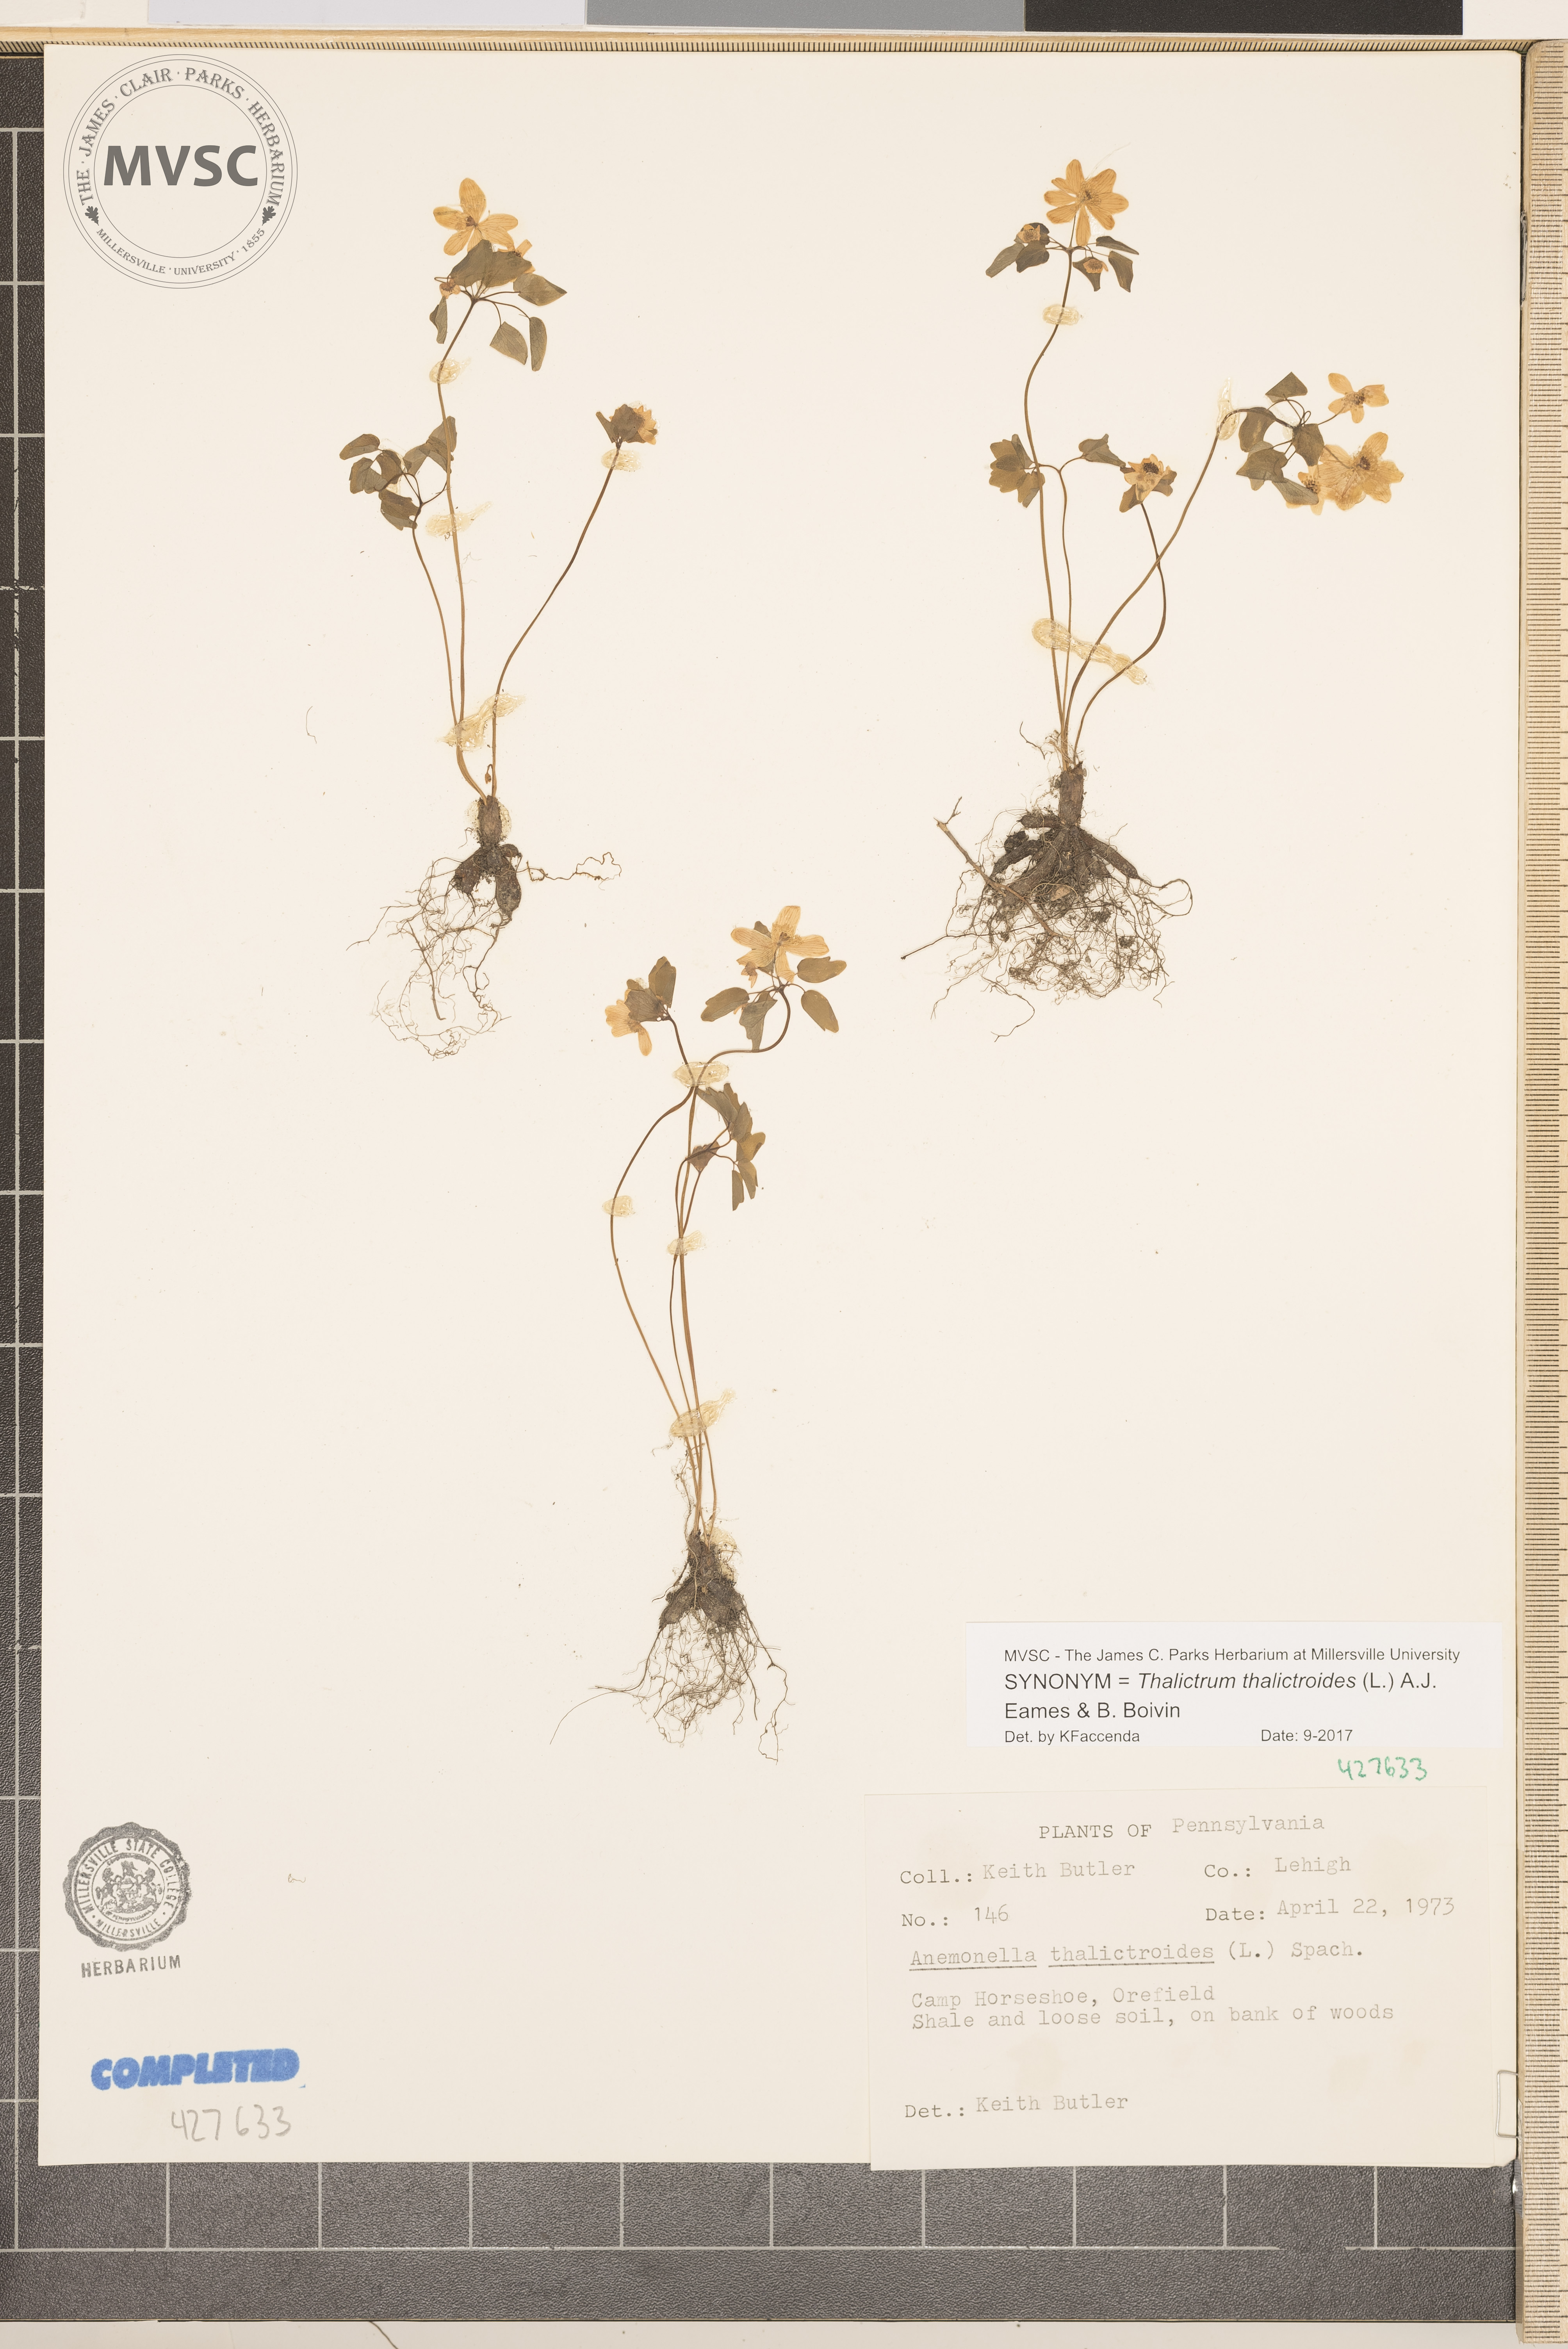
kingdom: Plantae
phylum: Tracheophyta
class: Magnoliopsida
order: Ranunculales
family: Ranunculaceae
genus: Thalictrum
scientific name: Thalictrum thalictroides
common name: Rue anemone
